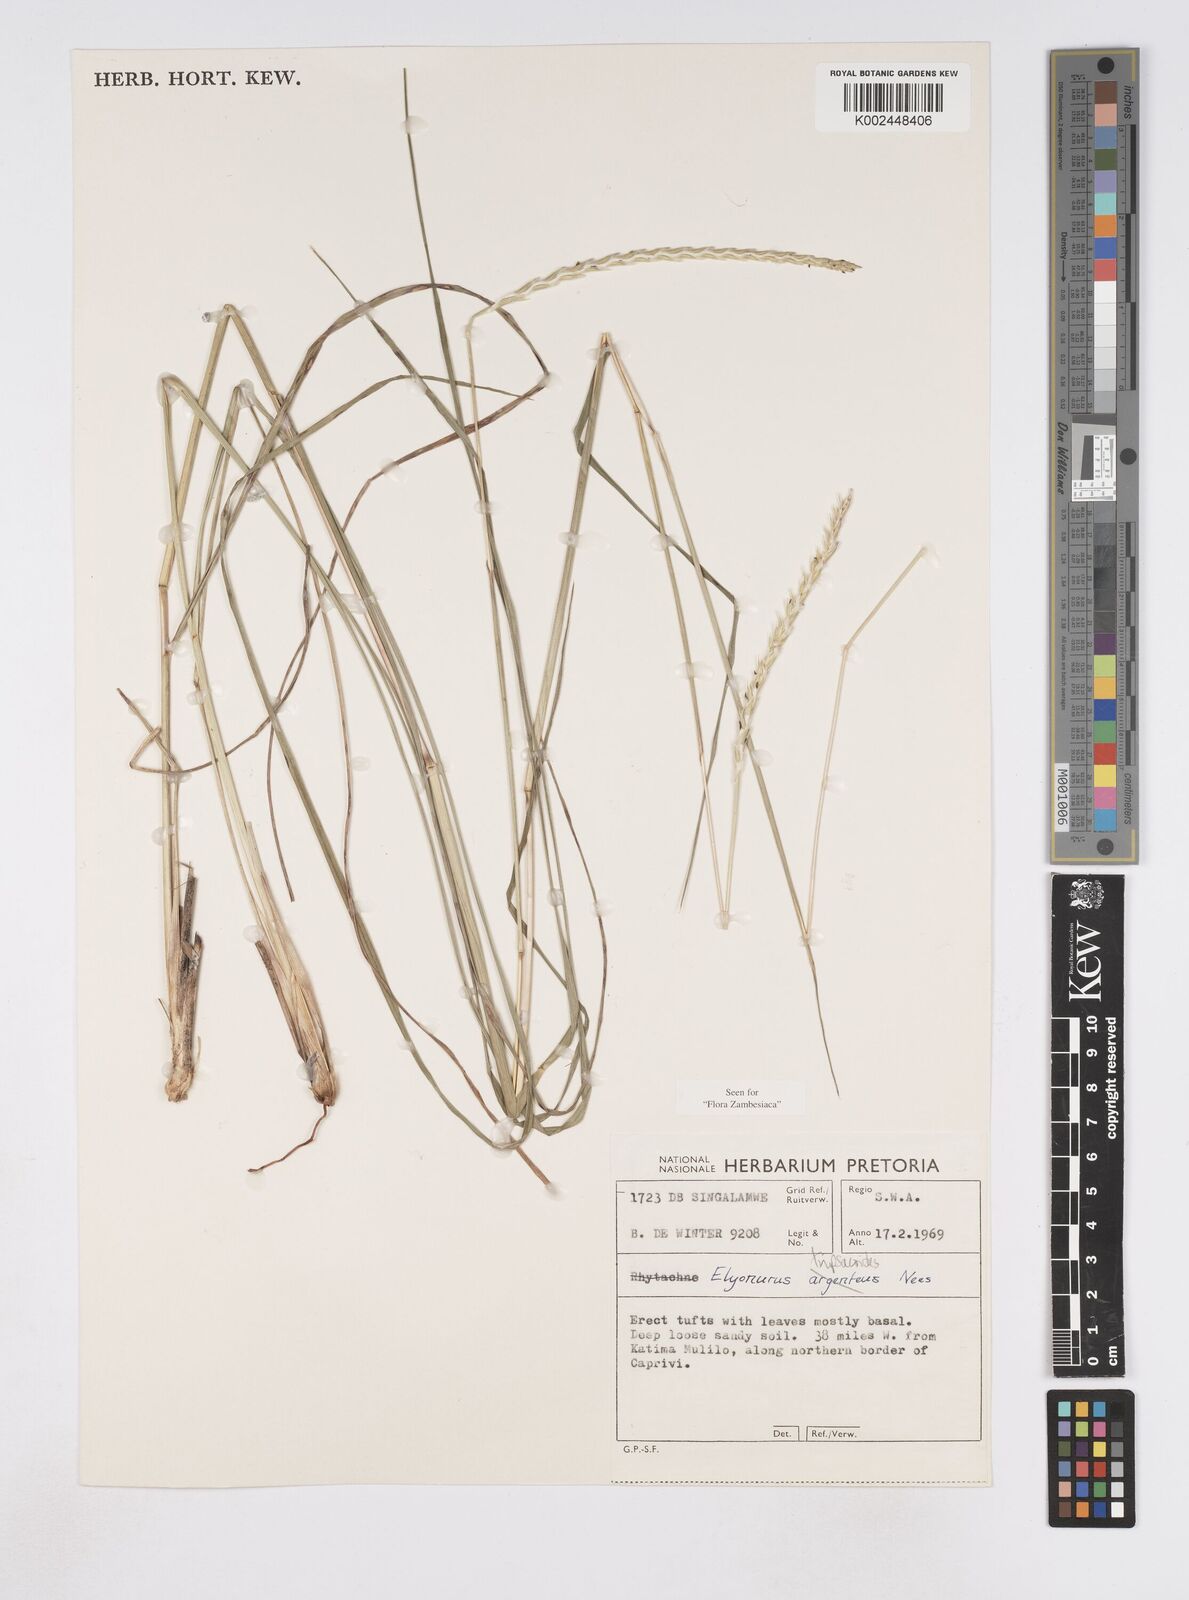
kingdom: Plantae
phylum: Tracheophyta
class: Liliopsida
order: Poales
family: Poaceae
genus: Elionurus
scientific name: Elionurus tripsacoides
